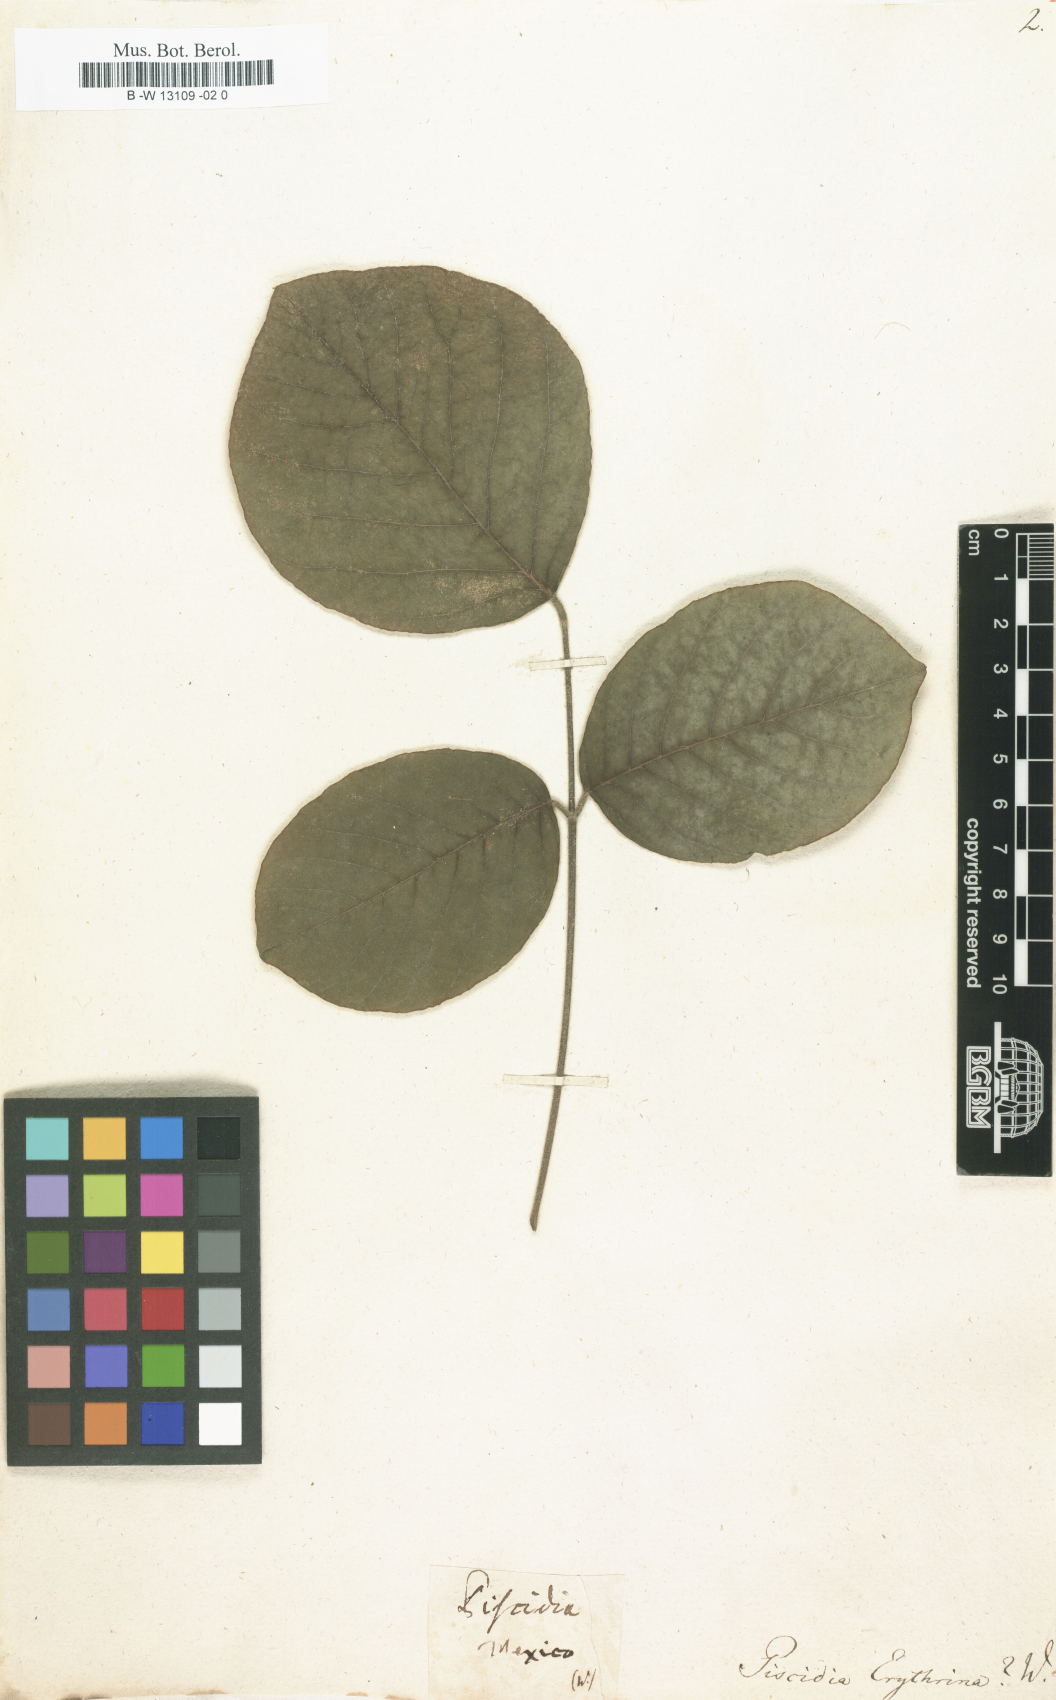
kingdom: Plantae
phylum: Tracheophyta
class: Magnoliopsida
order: Fabales
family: Fabaceae
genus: Piscidia
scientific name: Piscidia piscipula
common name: Florida fishpoison tree
